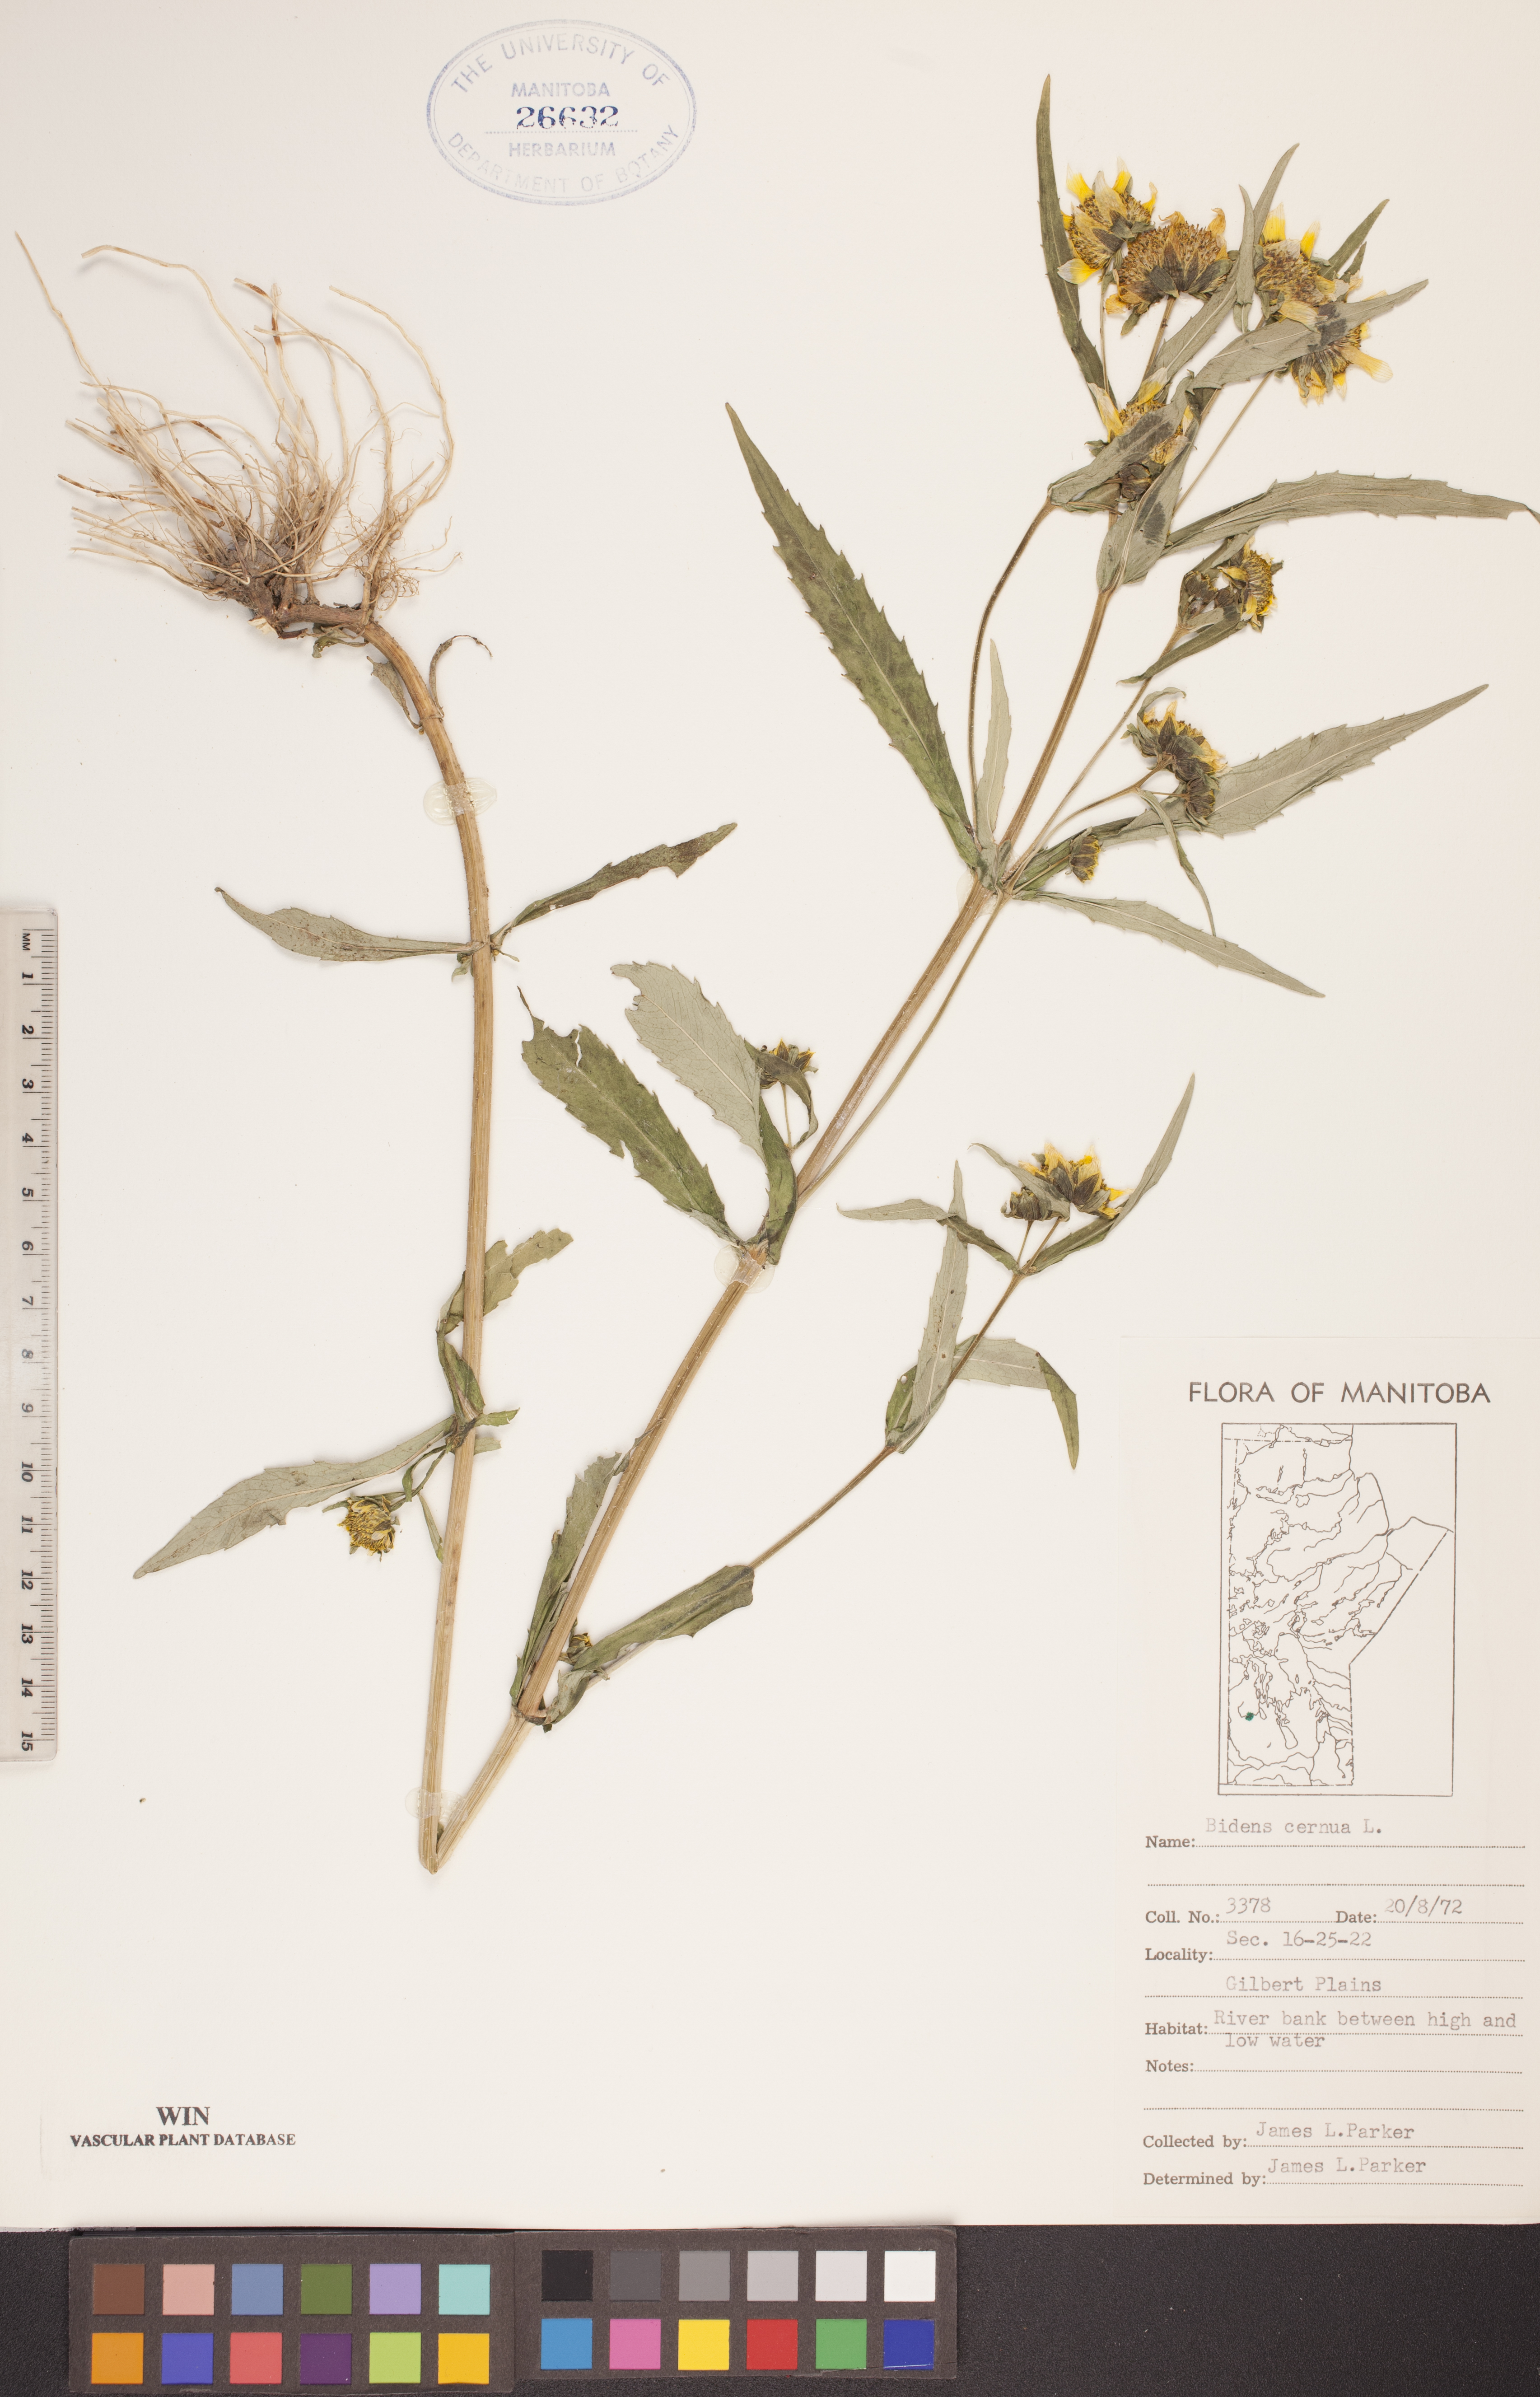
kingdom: Plantae
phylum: Tracheophyta
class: Magnoliopsida
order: Asterales
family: Asteraceae
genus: Bidens
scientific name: Bidens cernua
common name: Nodding bur-marigold
